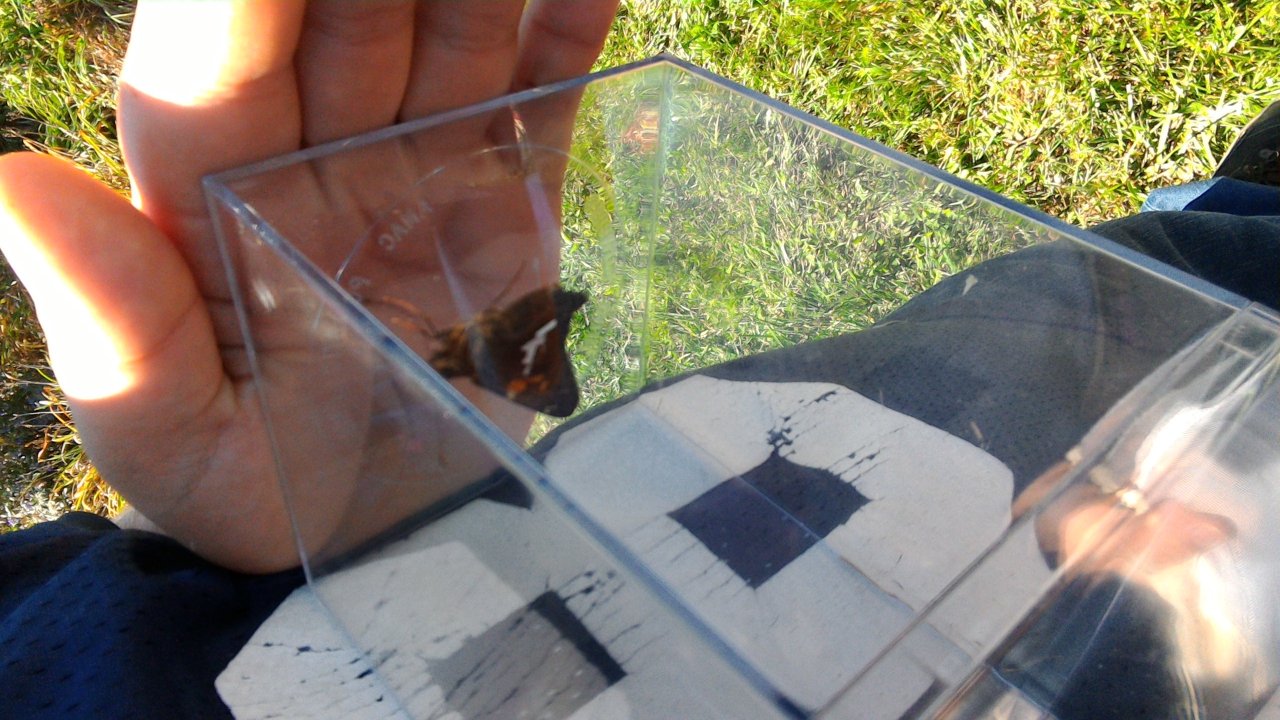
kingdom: Animalia
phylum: Arthropoda
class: Insecta
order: Lepidoptera
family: Hesperiidae
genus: Epargyreus
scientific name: Epargyreus clarus
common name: Silver-spotted Skipper
